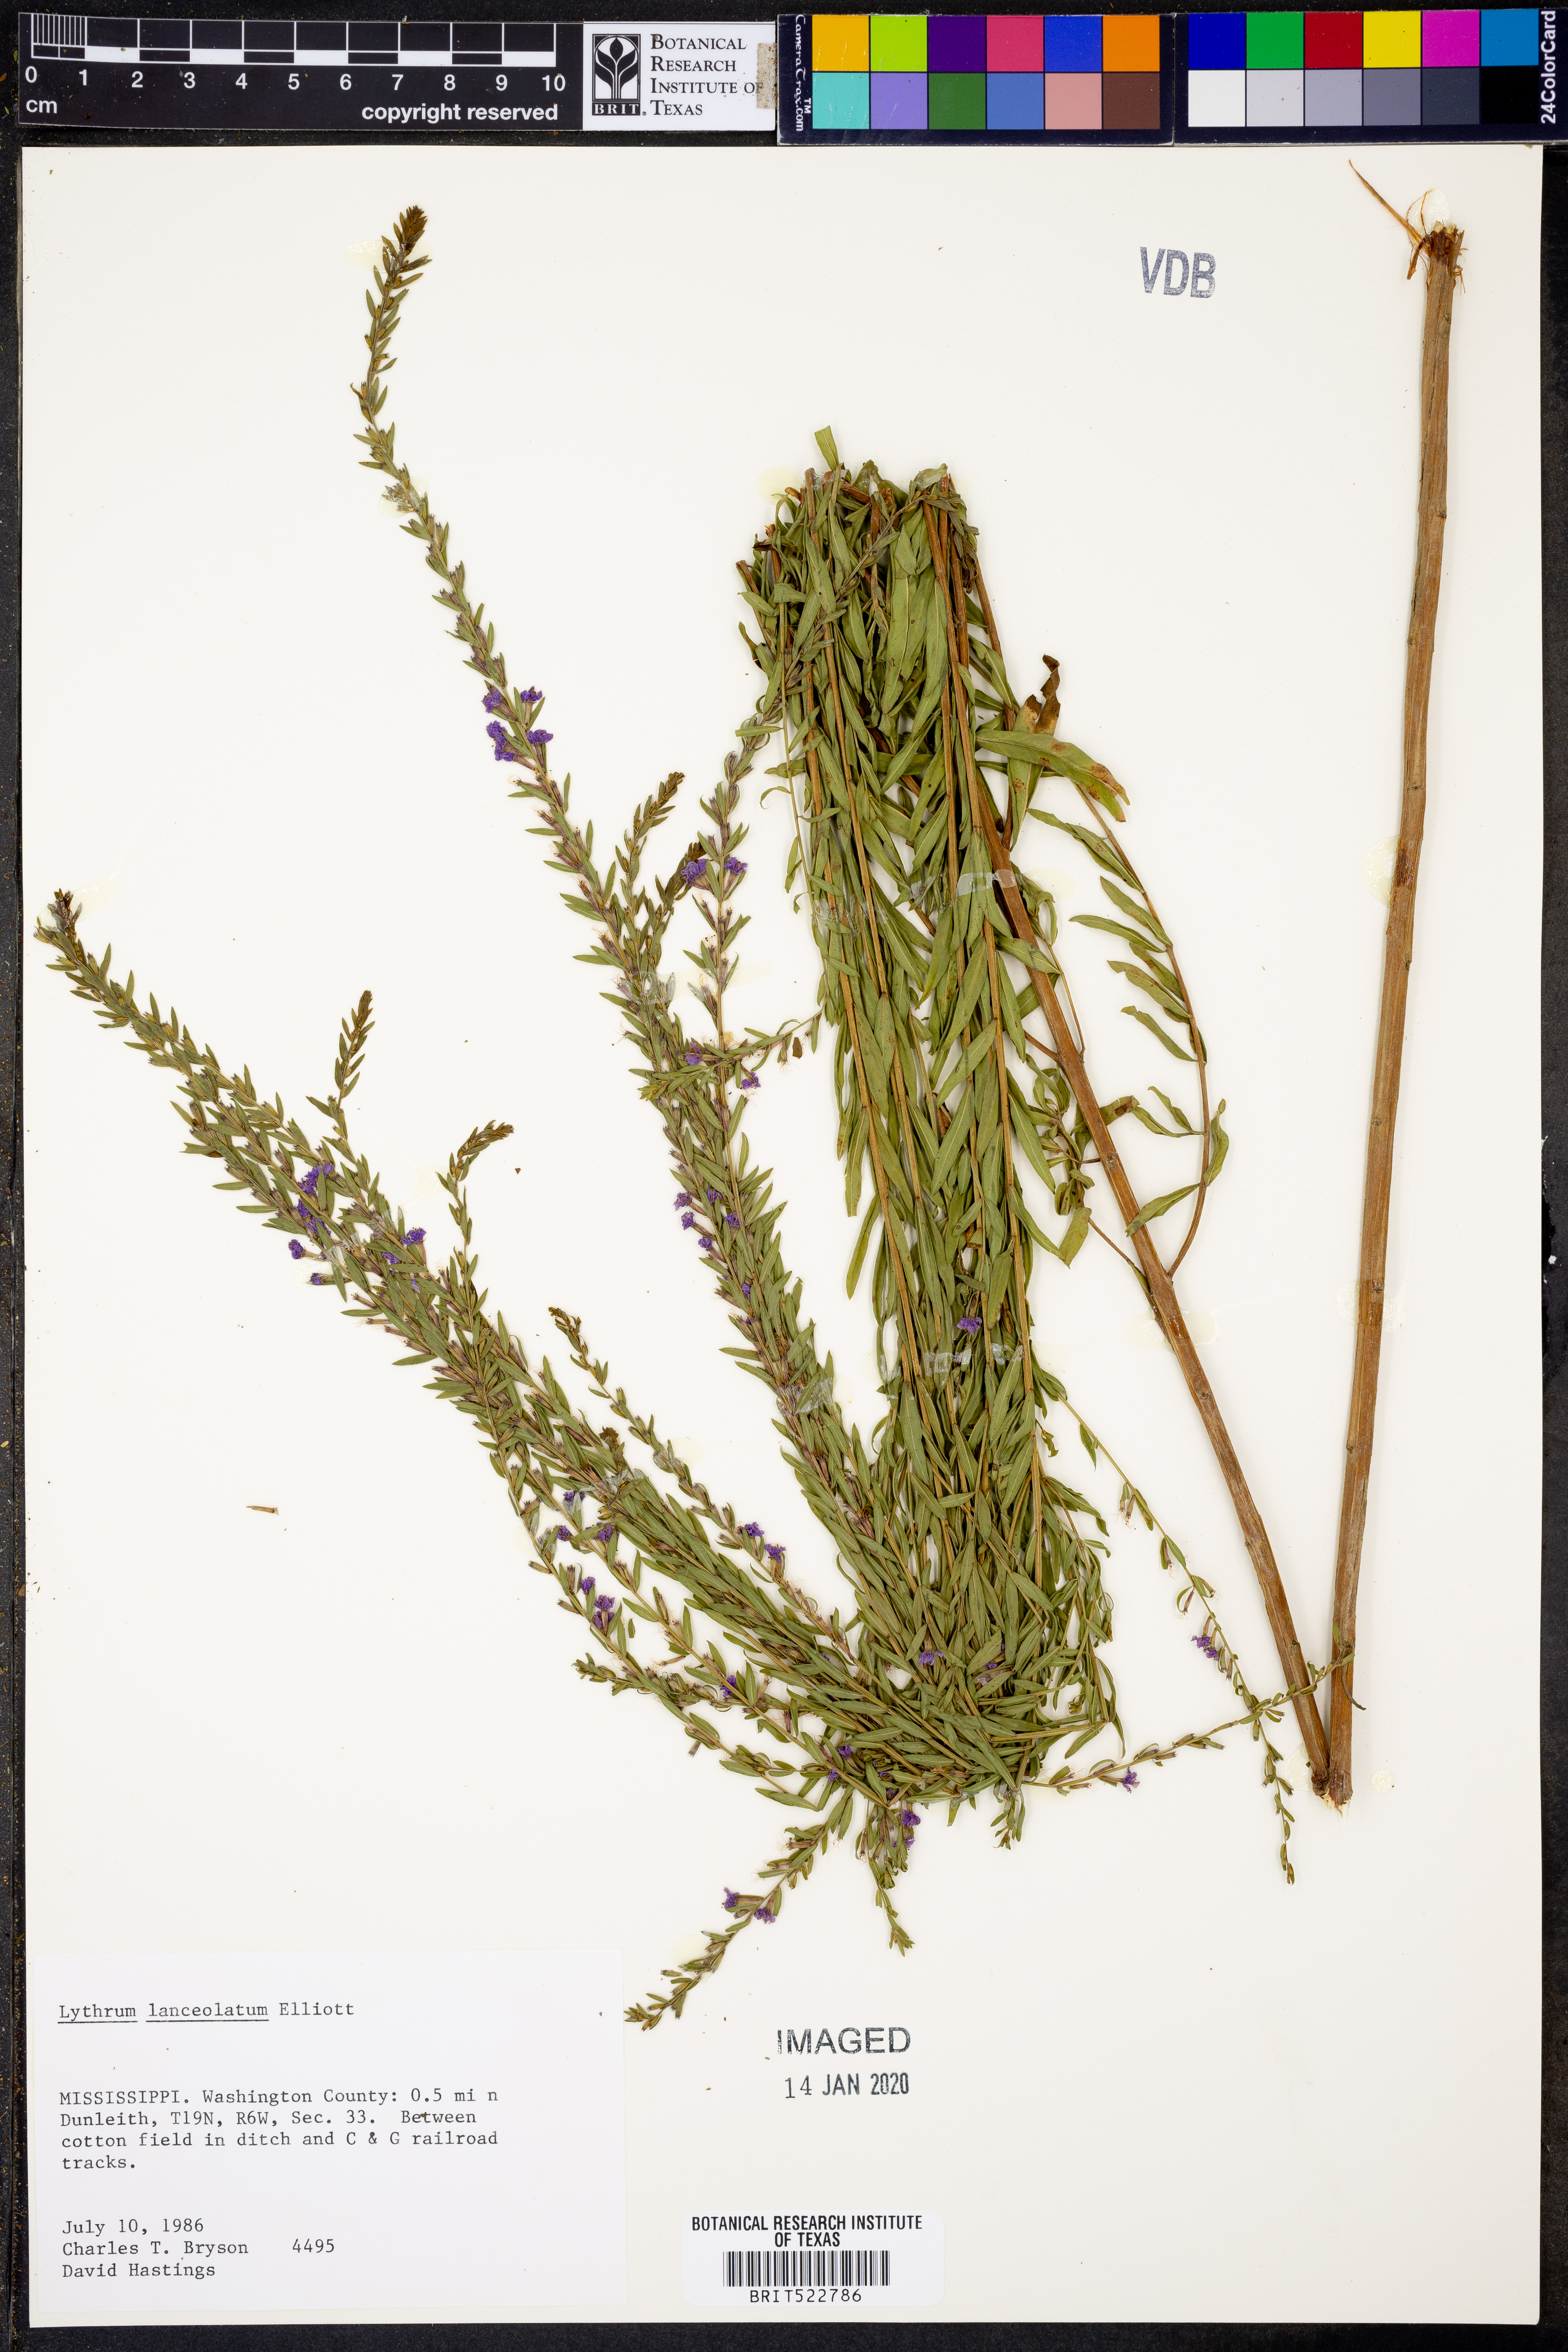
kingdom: Plantae
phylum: Tracheophyta
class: Magnoliopsida
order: Myrtales
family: Lythraceae
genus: Lythrum
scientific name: Lythrum alatum
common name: Winged loosestrife
